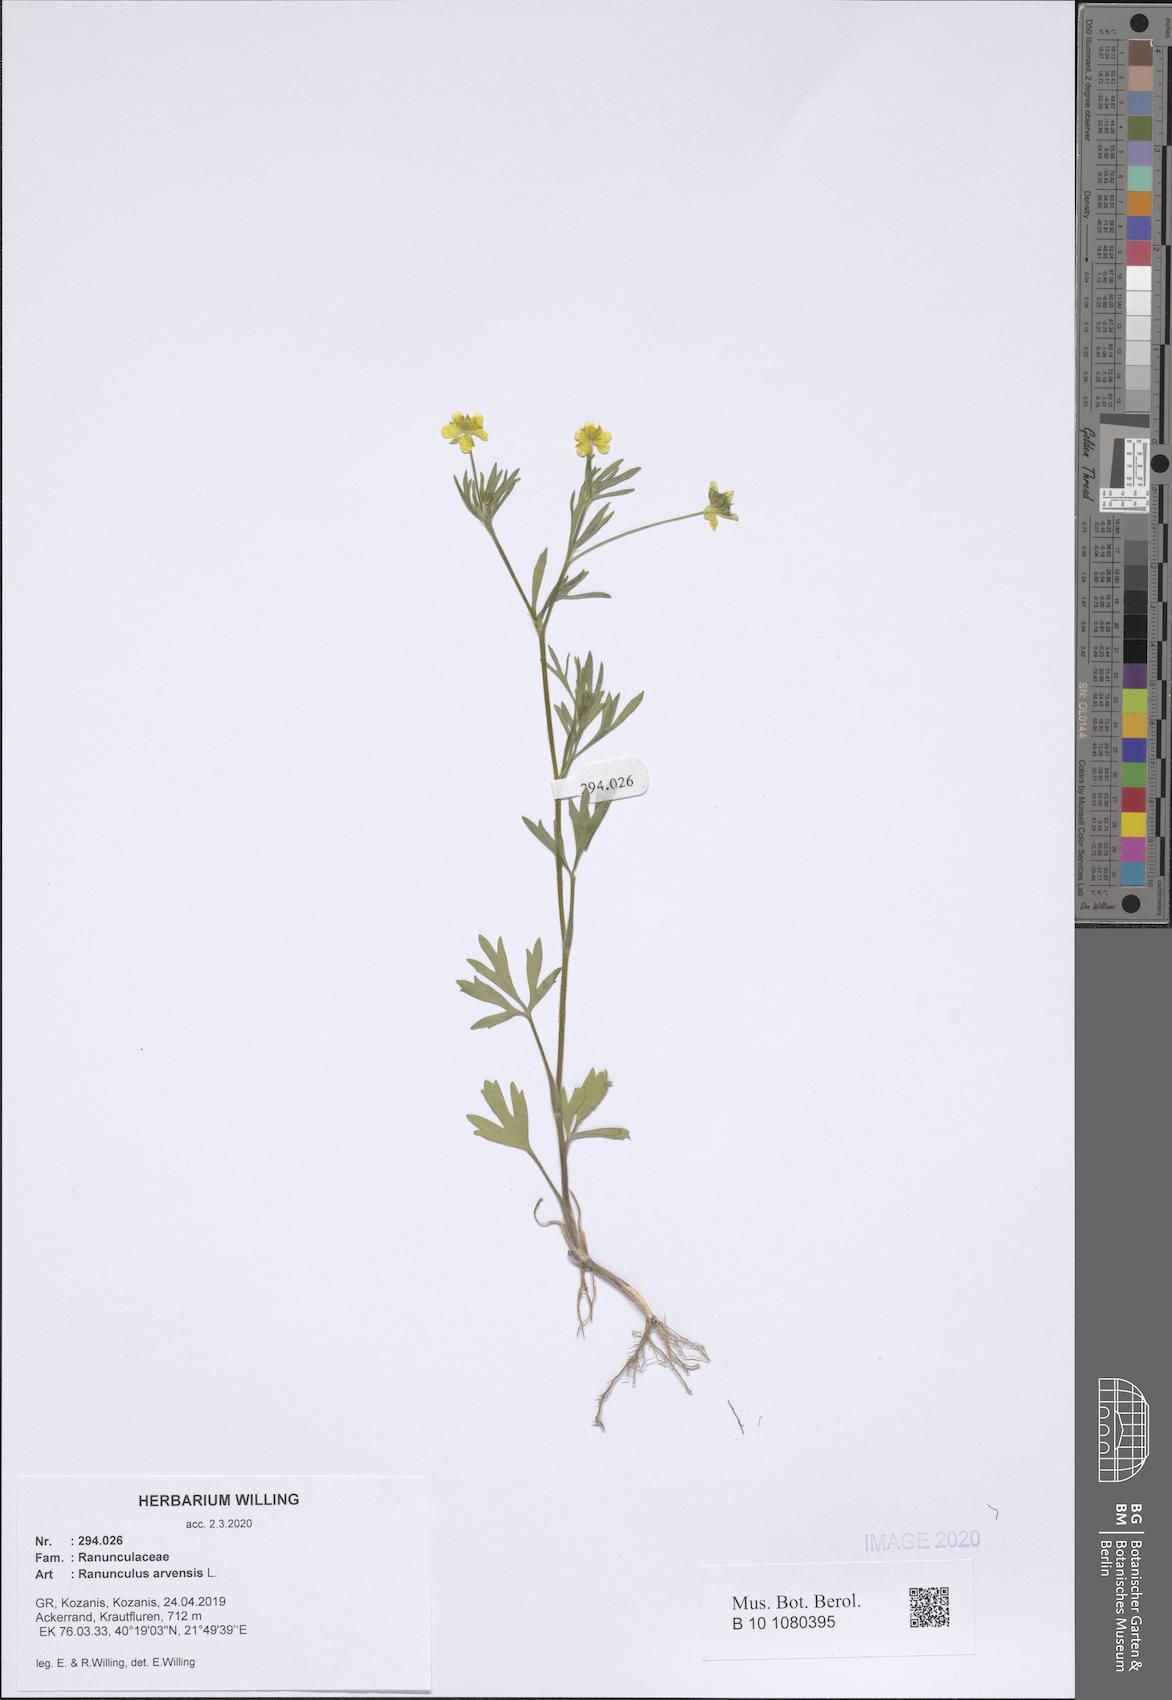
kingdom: Plantae
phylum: Tracheophyta
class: Magnoliopsida
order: Ranunculales
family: Ranunculaceae
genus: Ranunculus
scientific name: Ranunculus arvensis
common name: Corn buttercup
